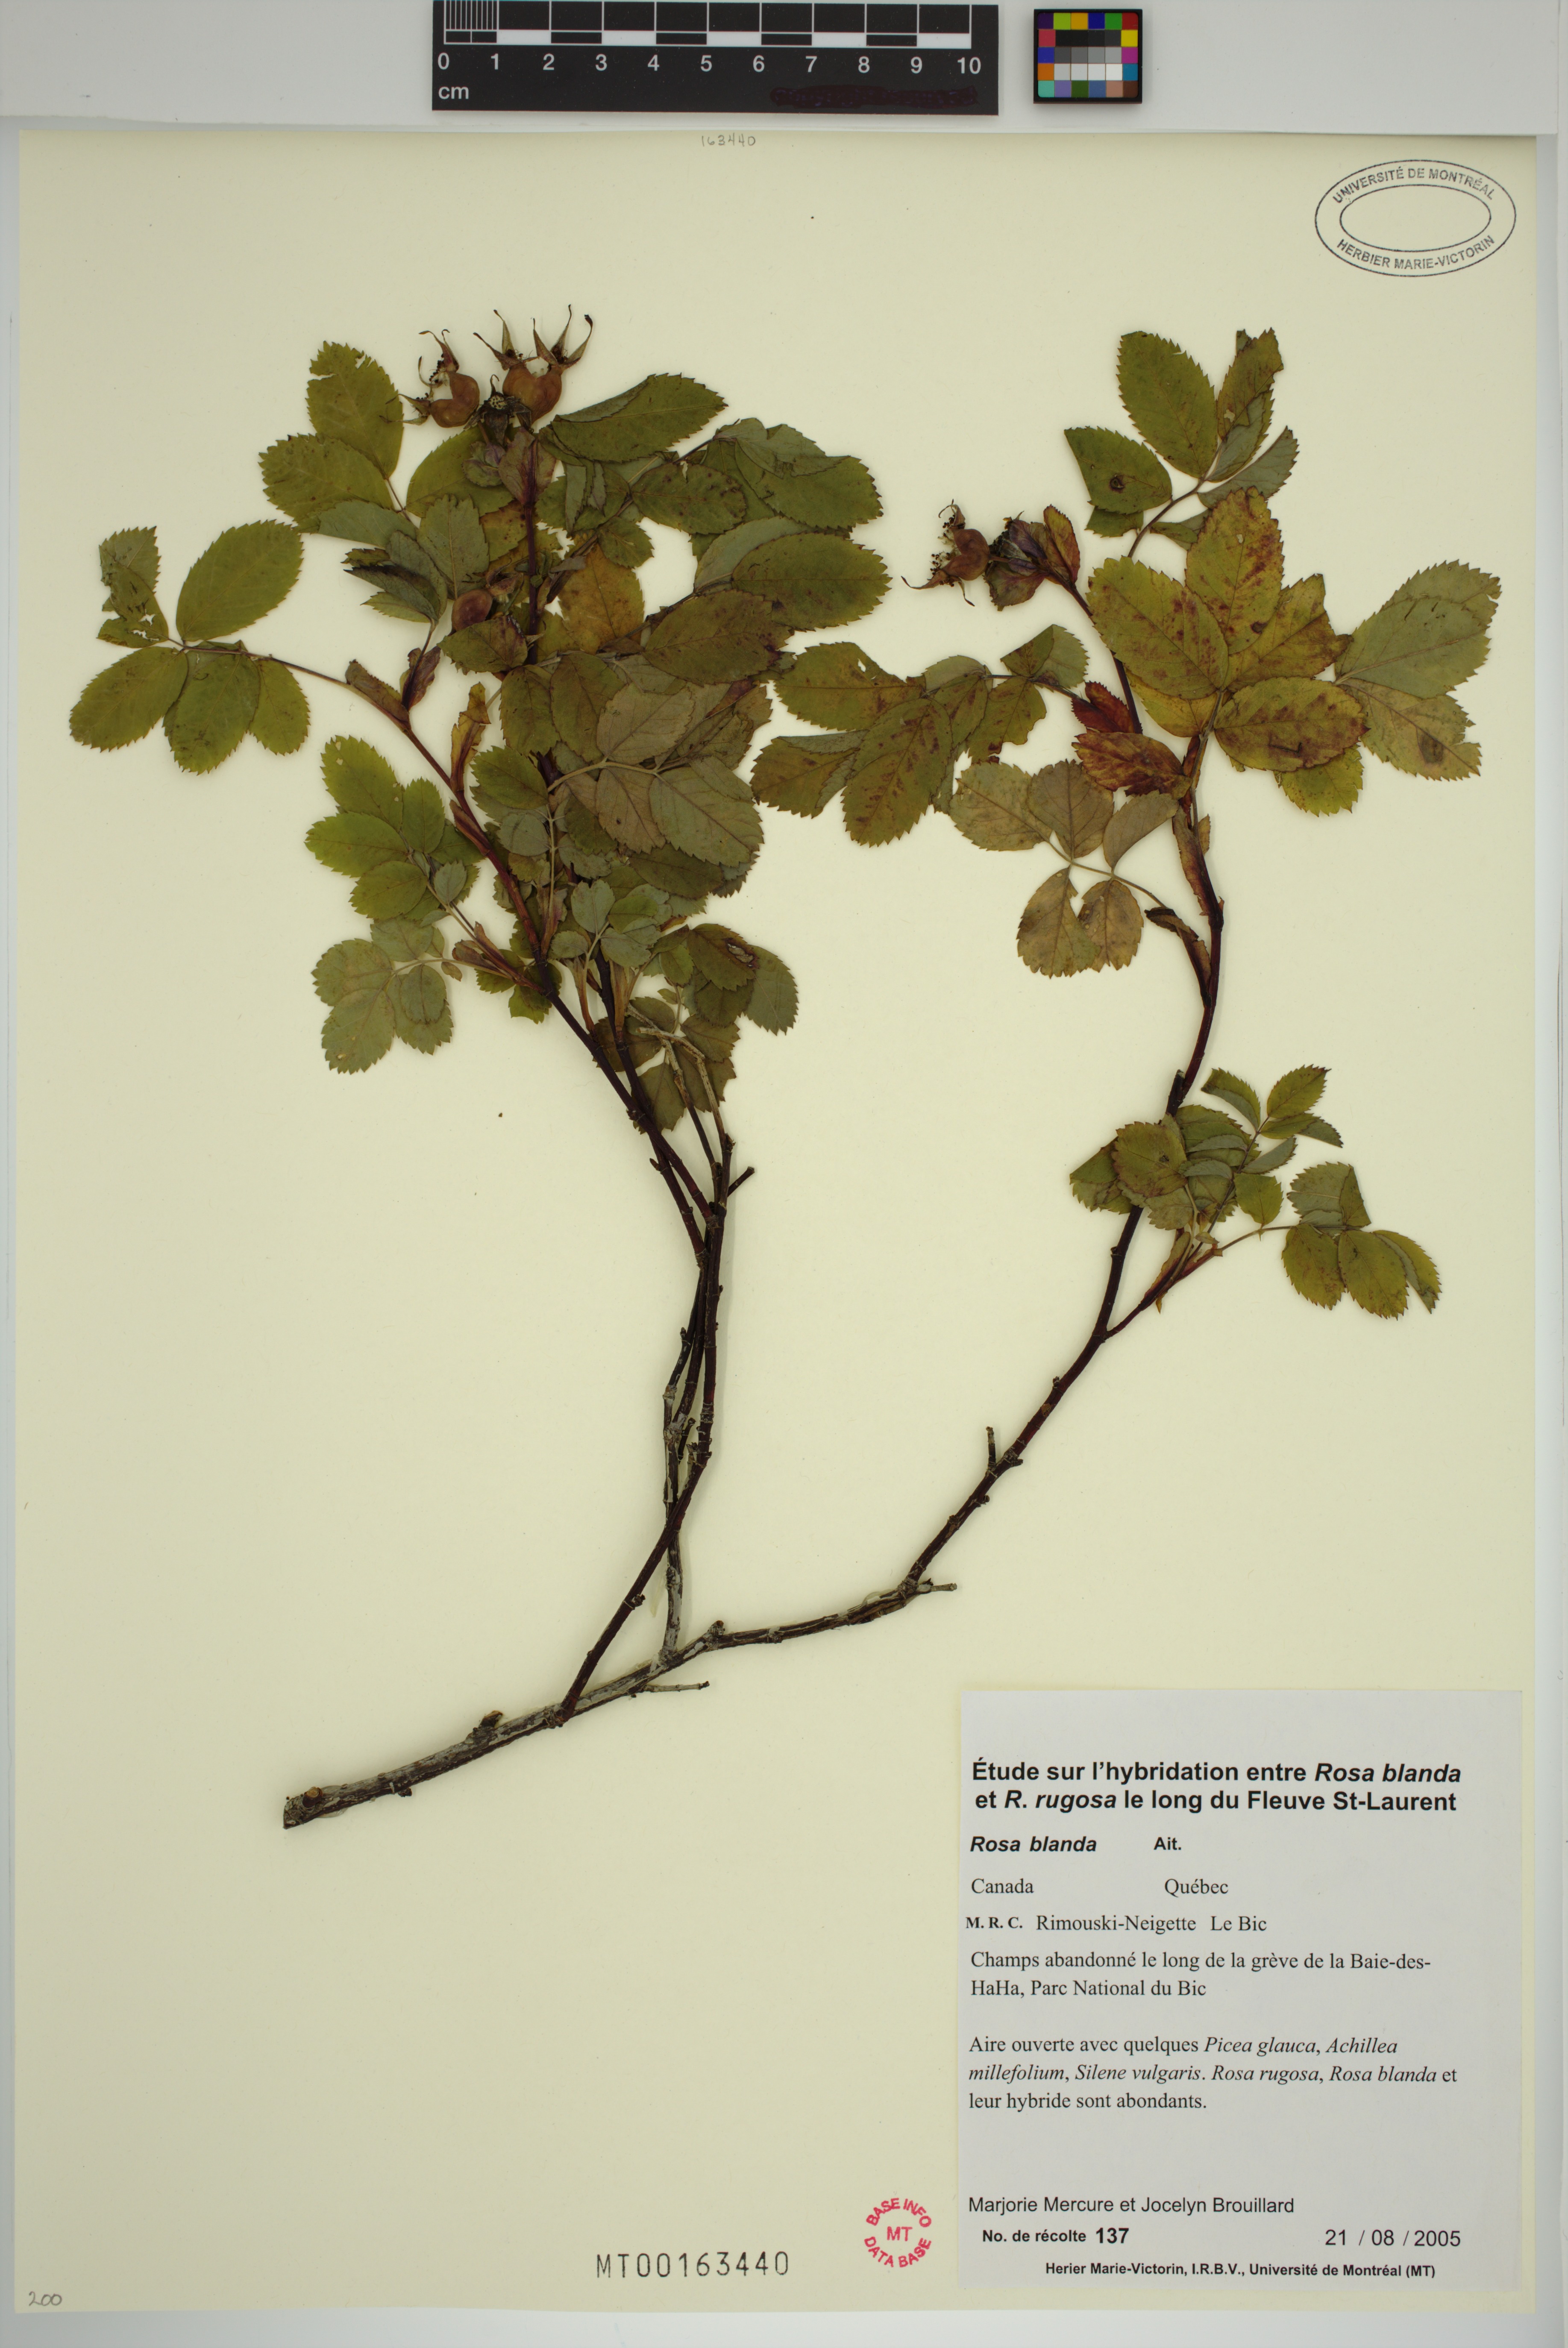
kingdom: Plantae
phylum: Tracheophyta
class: Magnoliopsida
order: Rosales
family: Rosaceae
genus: Rosa
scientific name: Rosa blanda
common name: Smooth rose
